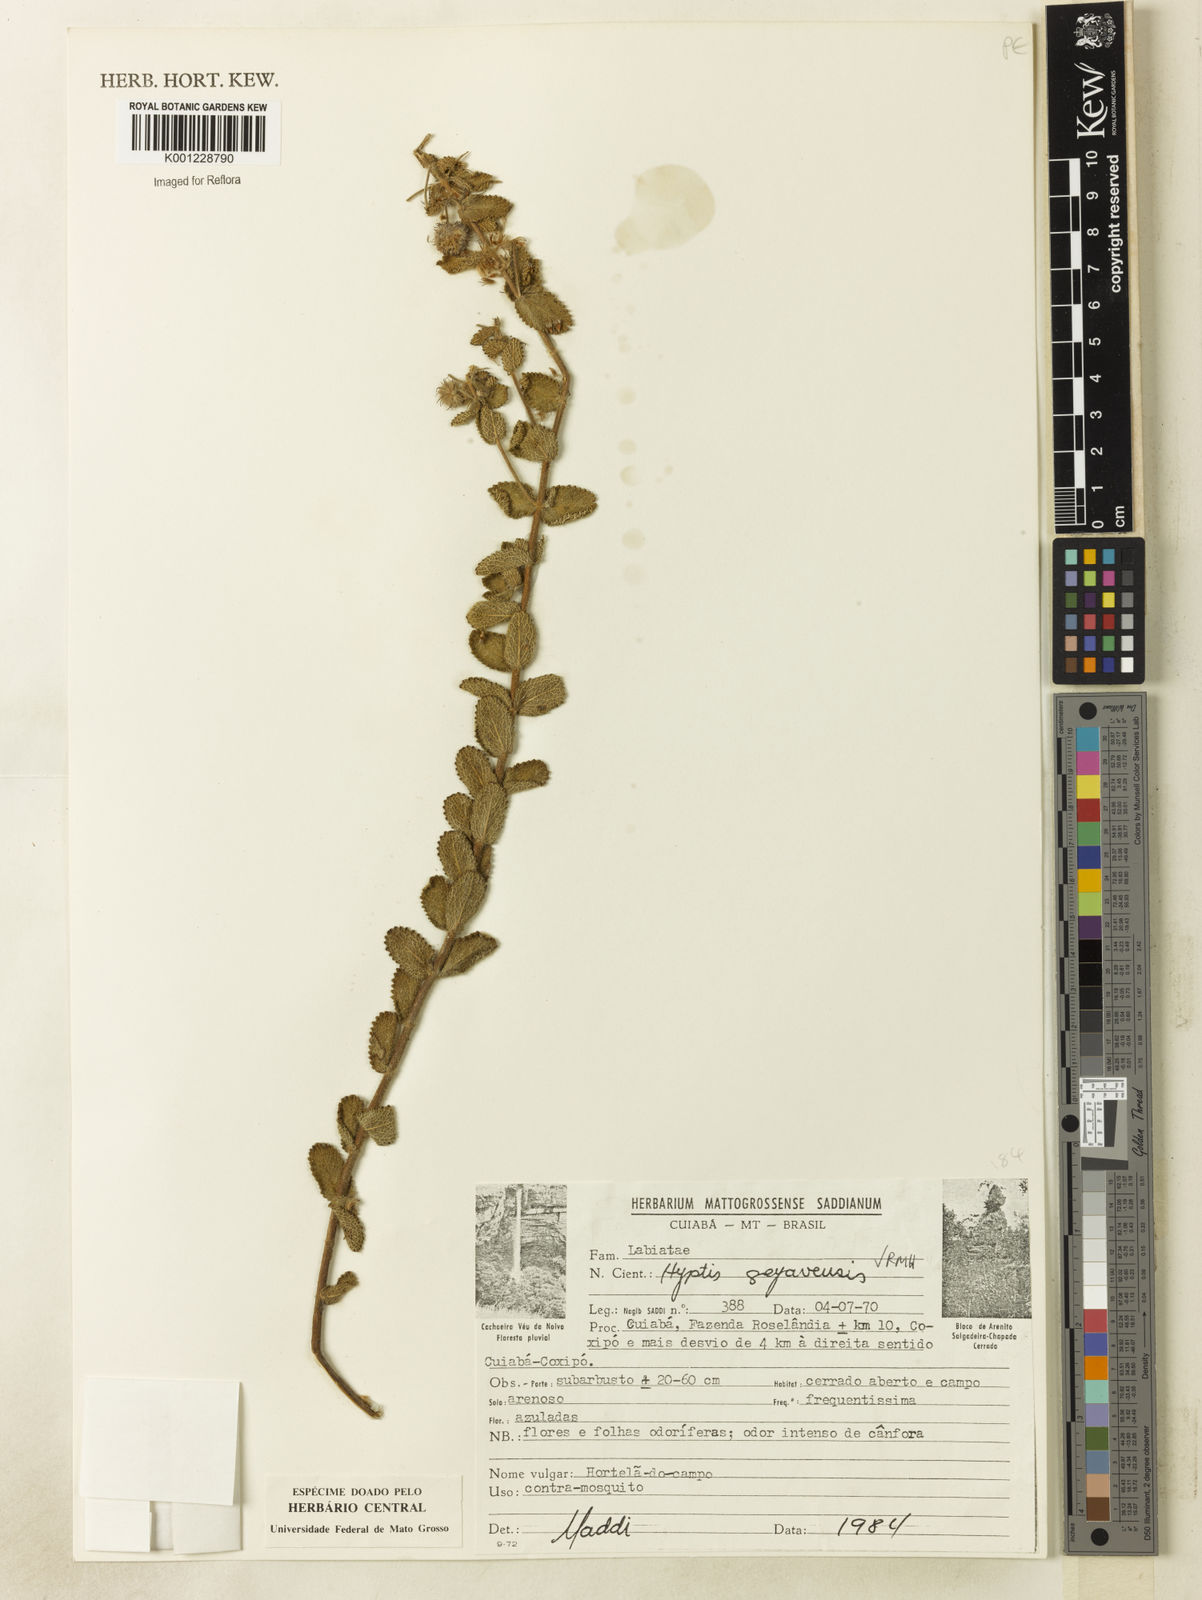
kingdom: Plantae
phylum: Tracheophyta
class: Magnoliopsida
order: Lamiales
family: Lamiaceae
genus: Hyptis
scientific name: Hyptis goyazensis
